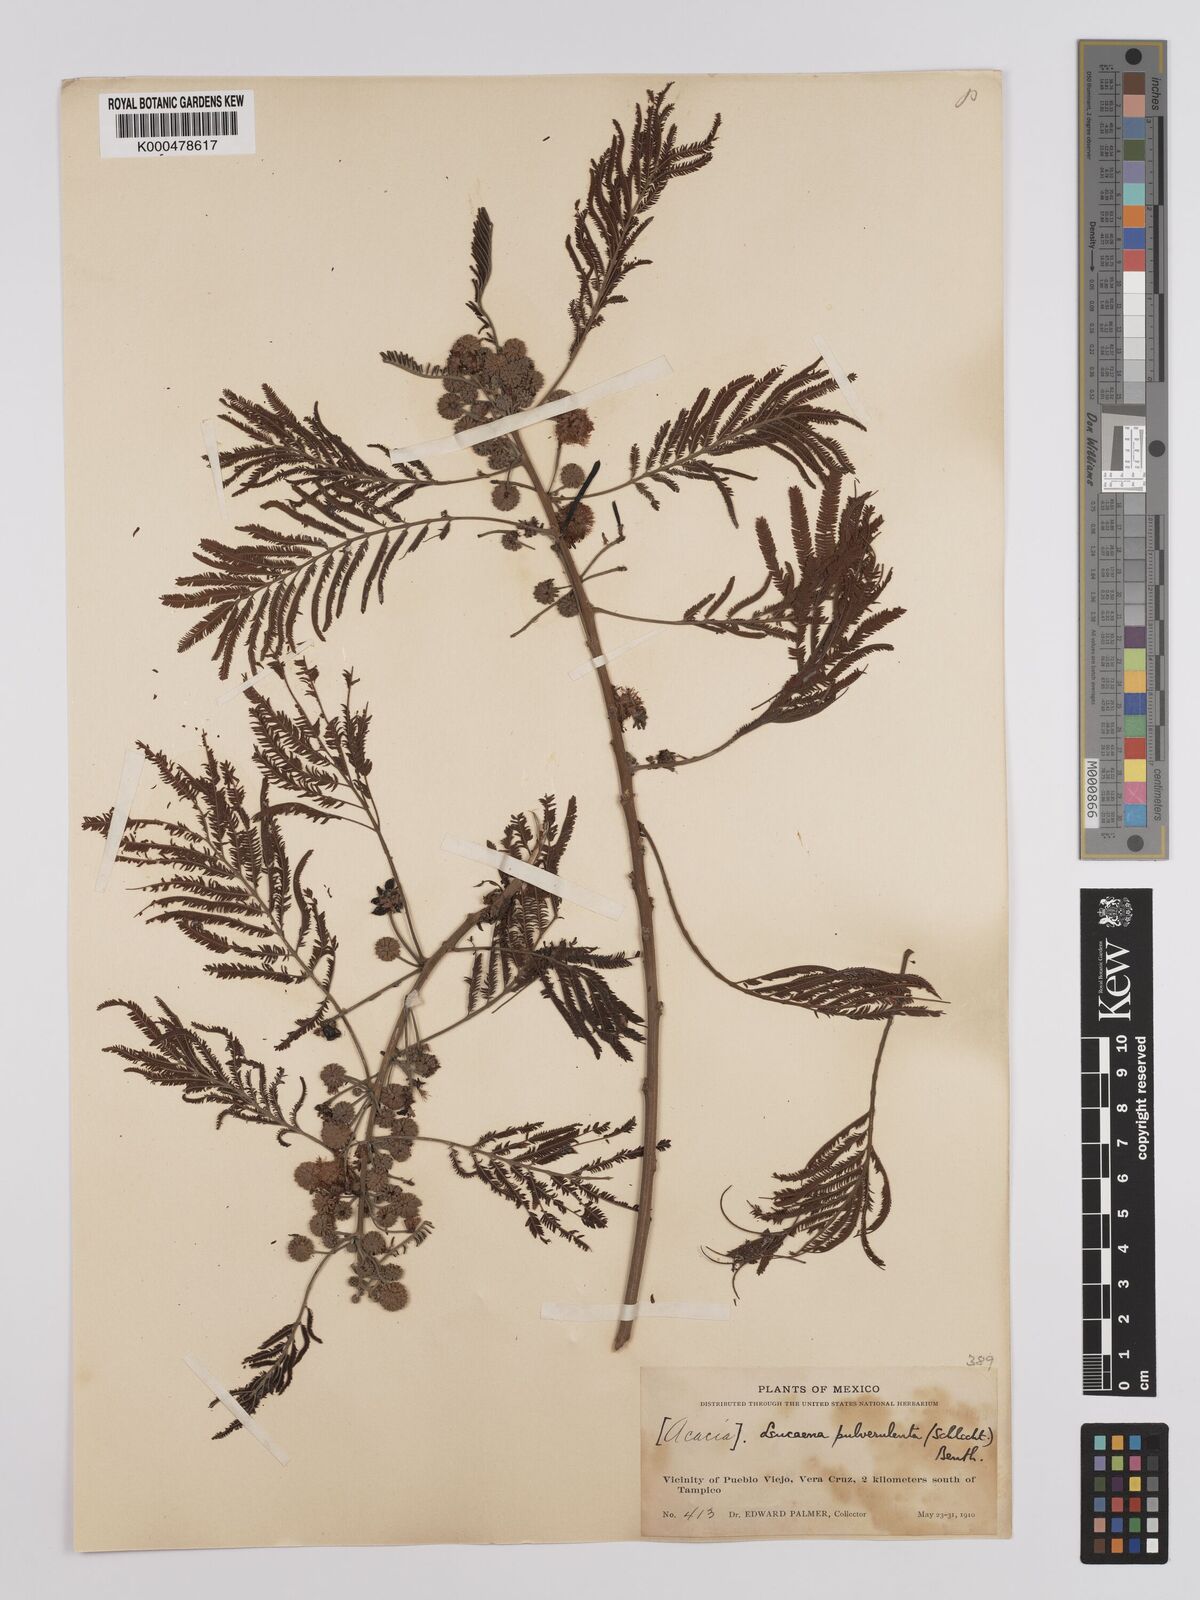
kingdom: Plantae
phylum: Tracheophyta
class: Magnoliopsida
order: Fabales
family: Fabaceae
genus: Leucaena
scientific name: Leucaena pulverulenta
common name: Great leadtree
